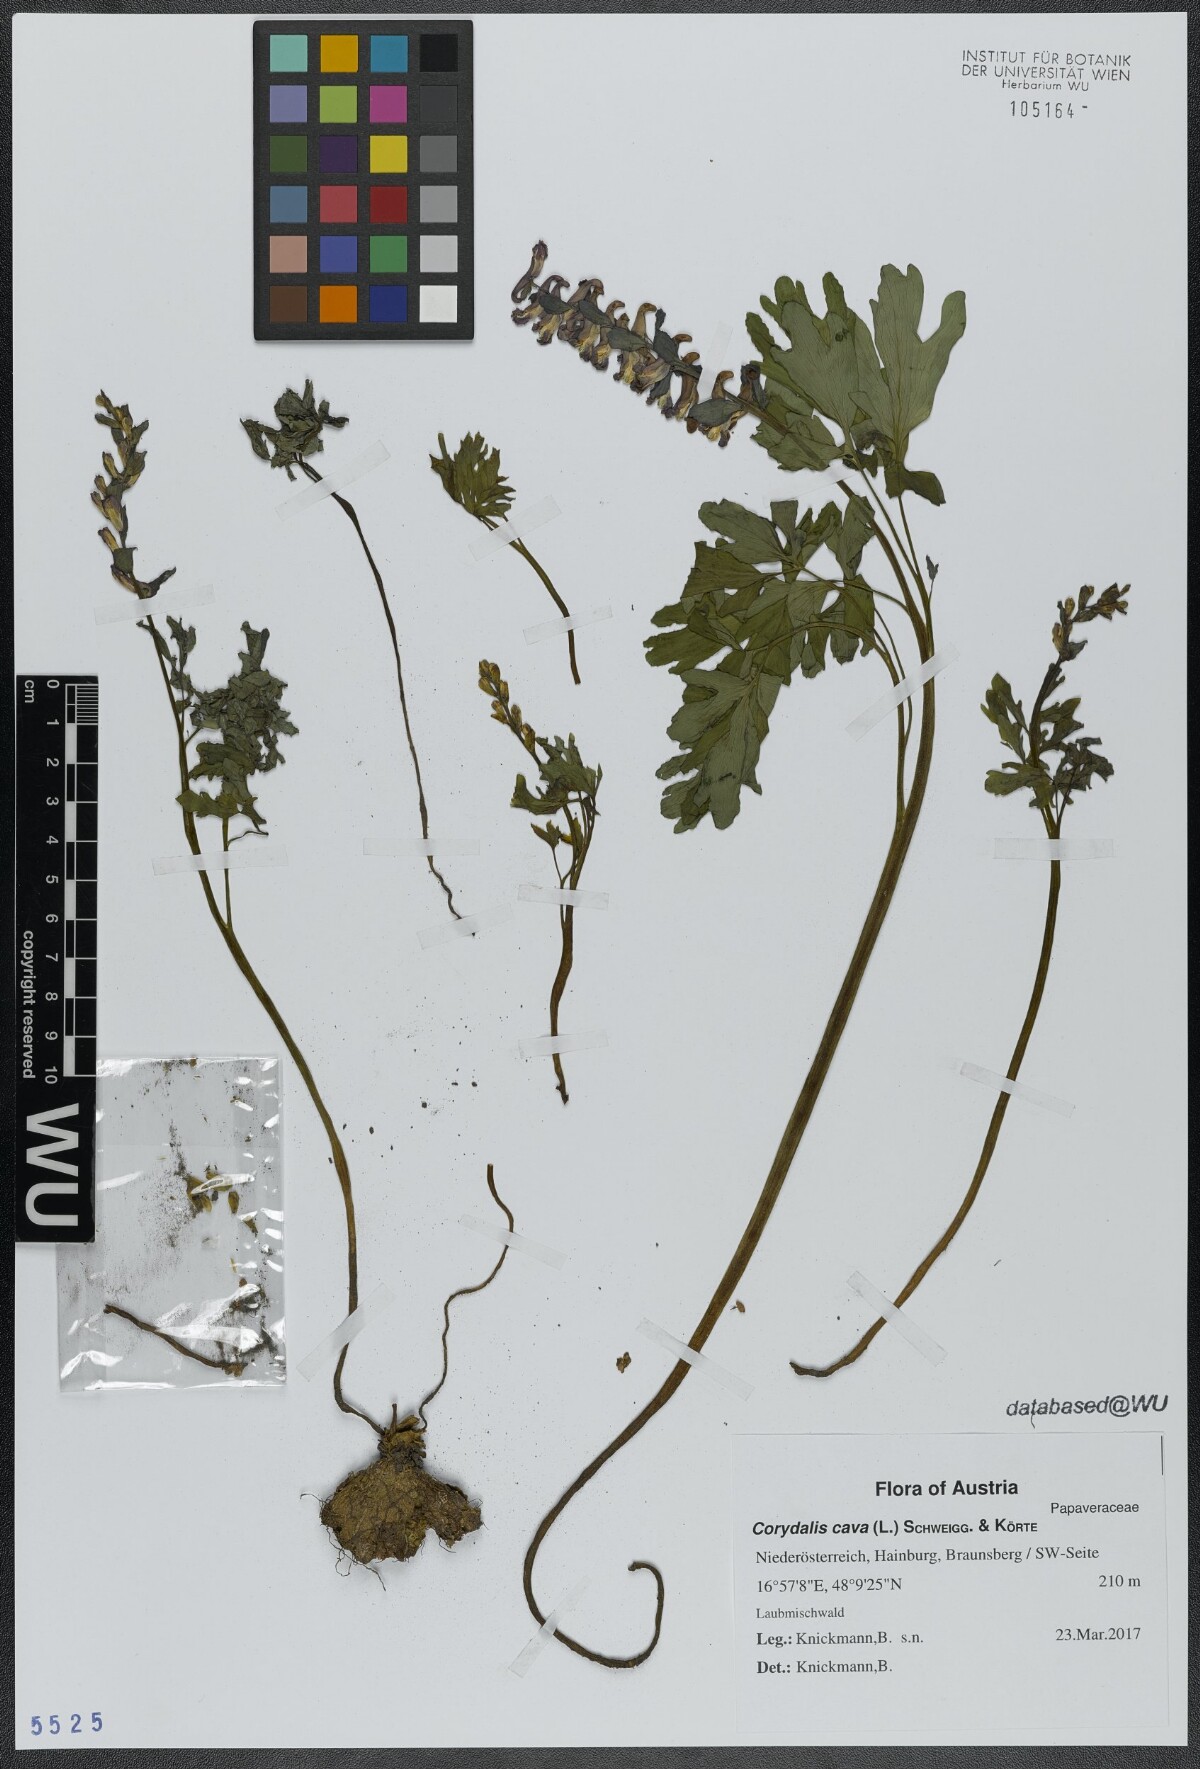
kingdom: Plantae
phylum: Tracheophyta
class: Magnoliopsida
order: Ranunculales
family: Papaveraceae
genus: Corydalis
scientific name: Corydalis cava
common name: Hollowroot
